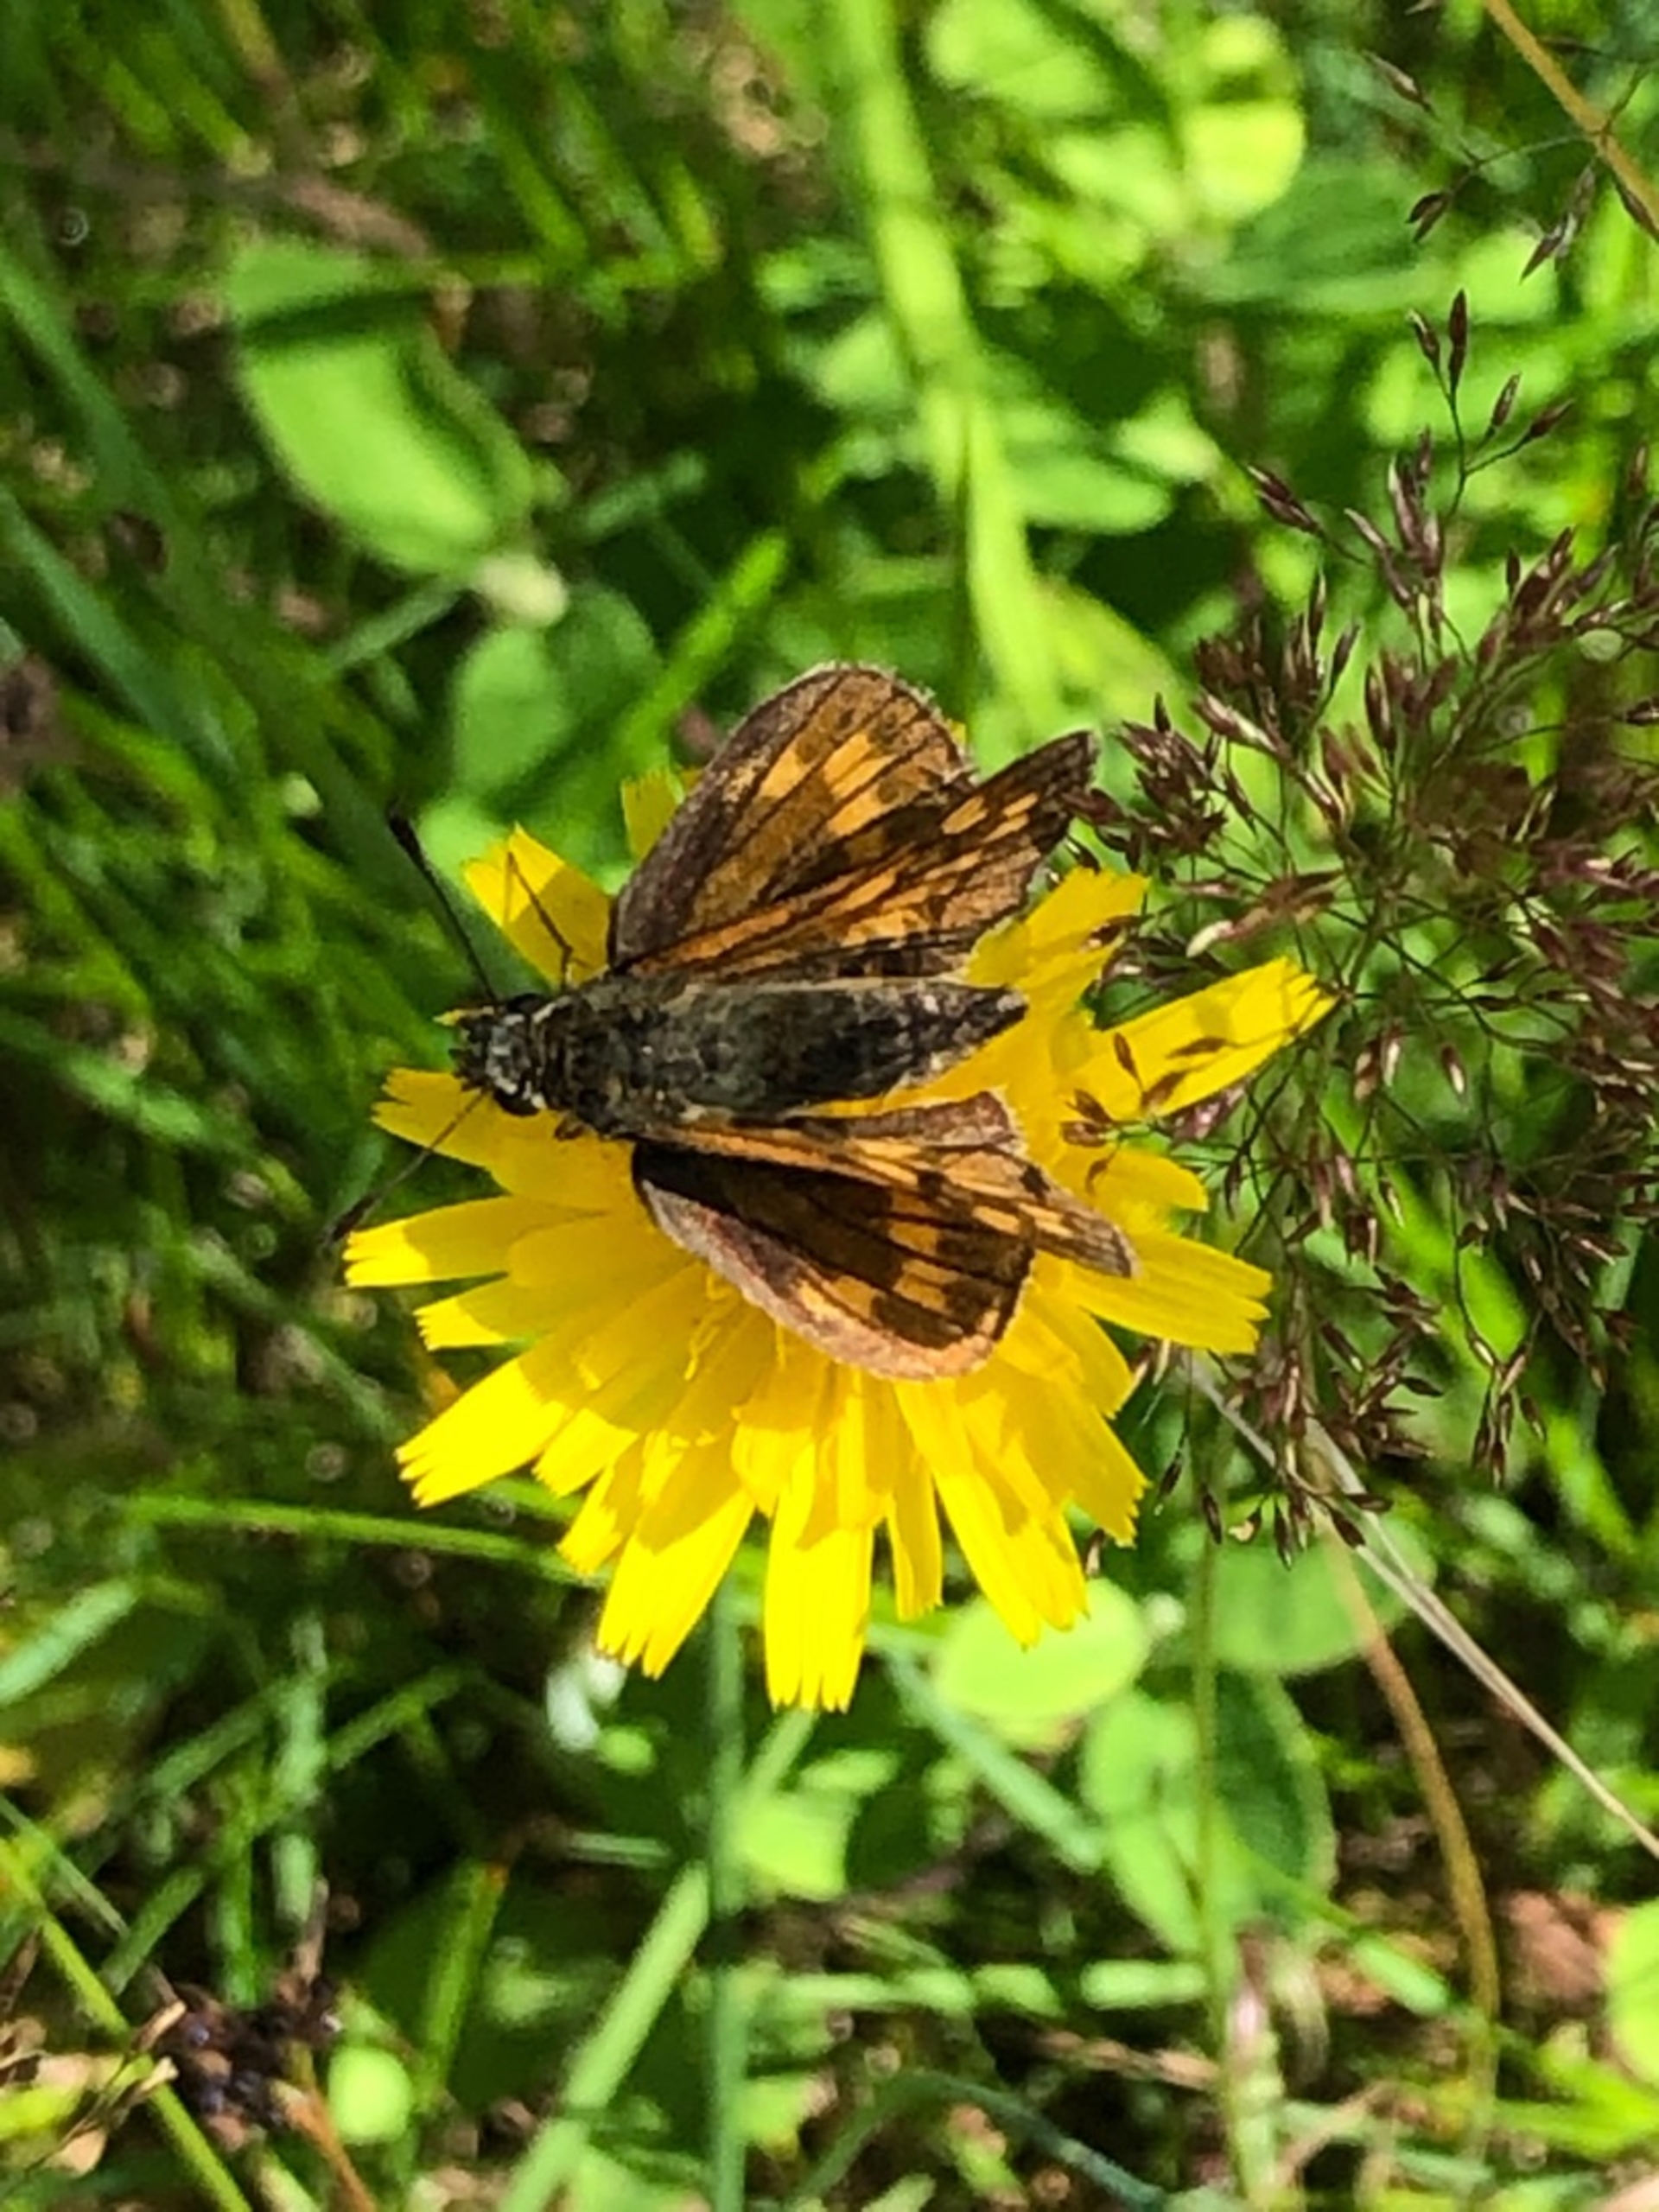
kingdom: Animalia
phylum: Arthropoda
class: Insecta
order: Lepidoptera
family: Hesperiidae
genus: Ochlodes
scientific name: Ochlodes venata
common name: Stor bredpande
